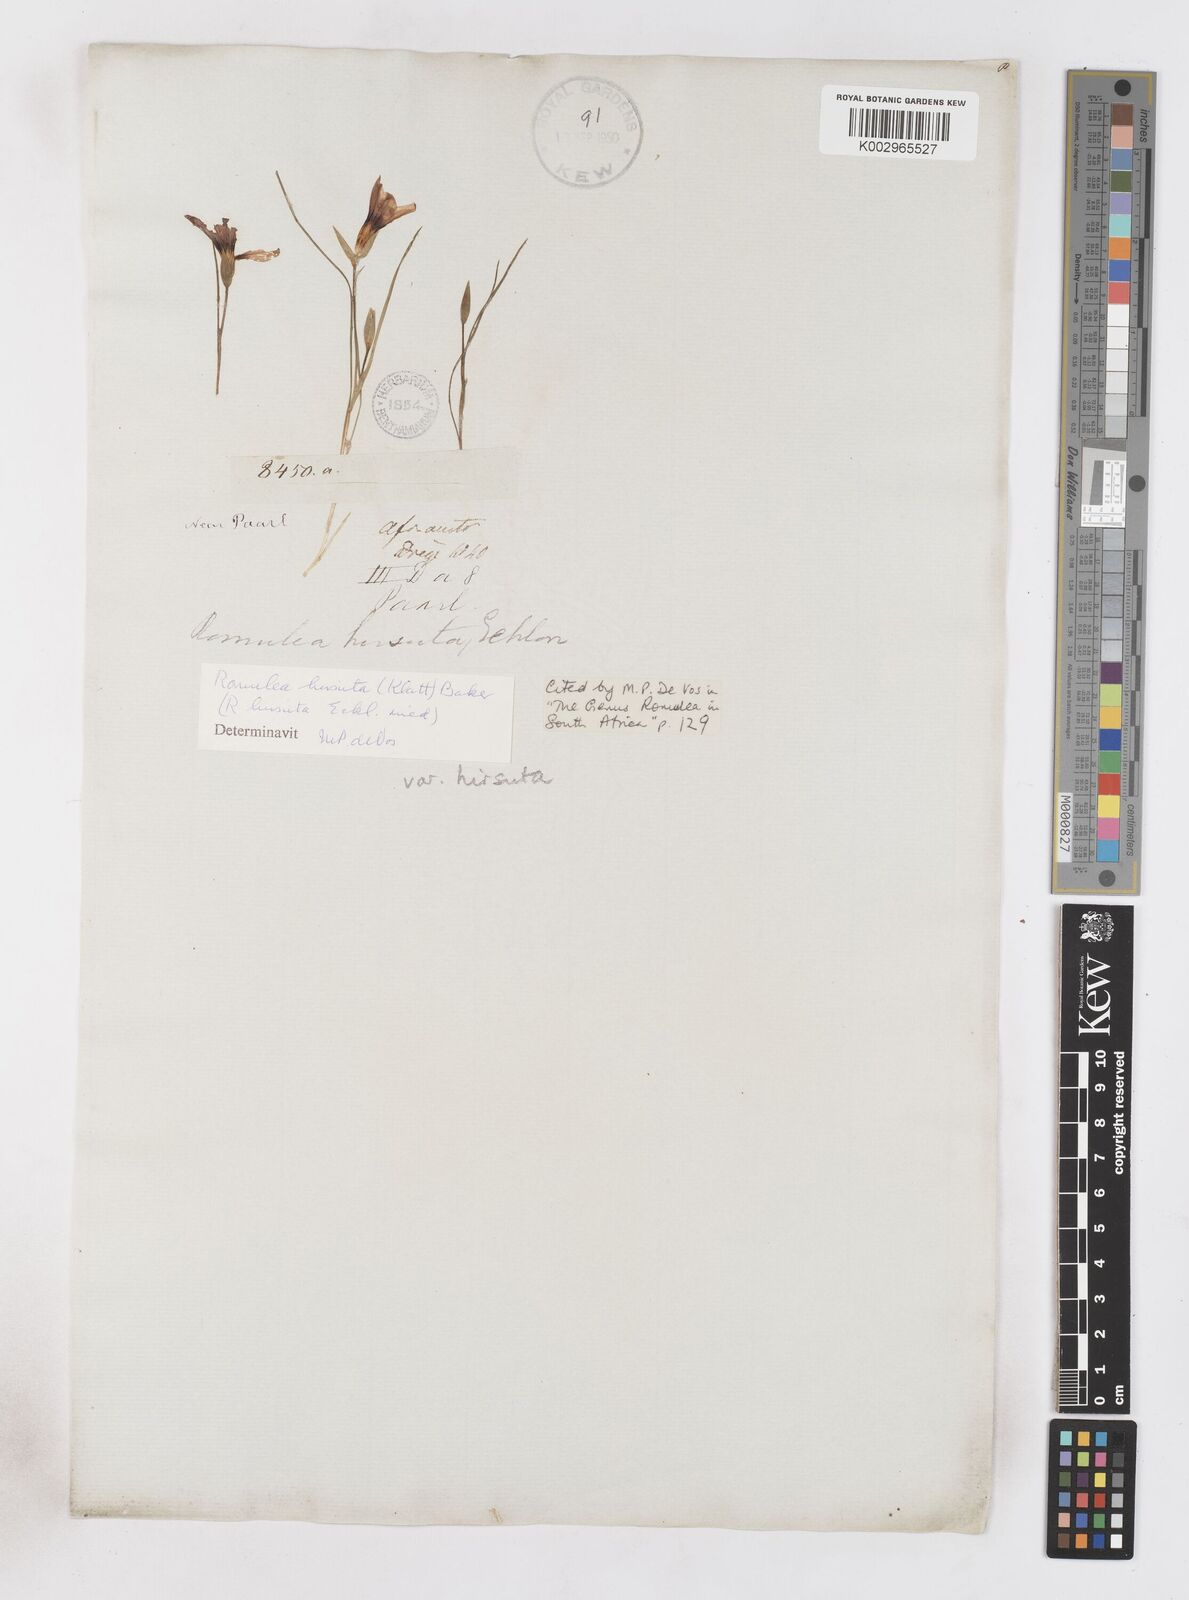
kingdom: Plantae
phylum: Tracheophyta
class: Liliopsida
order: Asparagales
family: Iridaceae
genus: Romulea
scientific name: Romulea hirsuta
